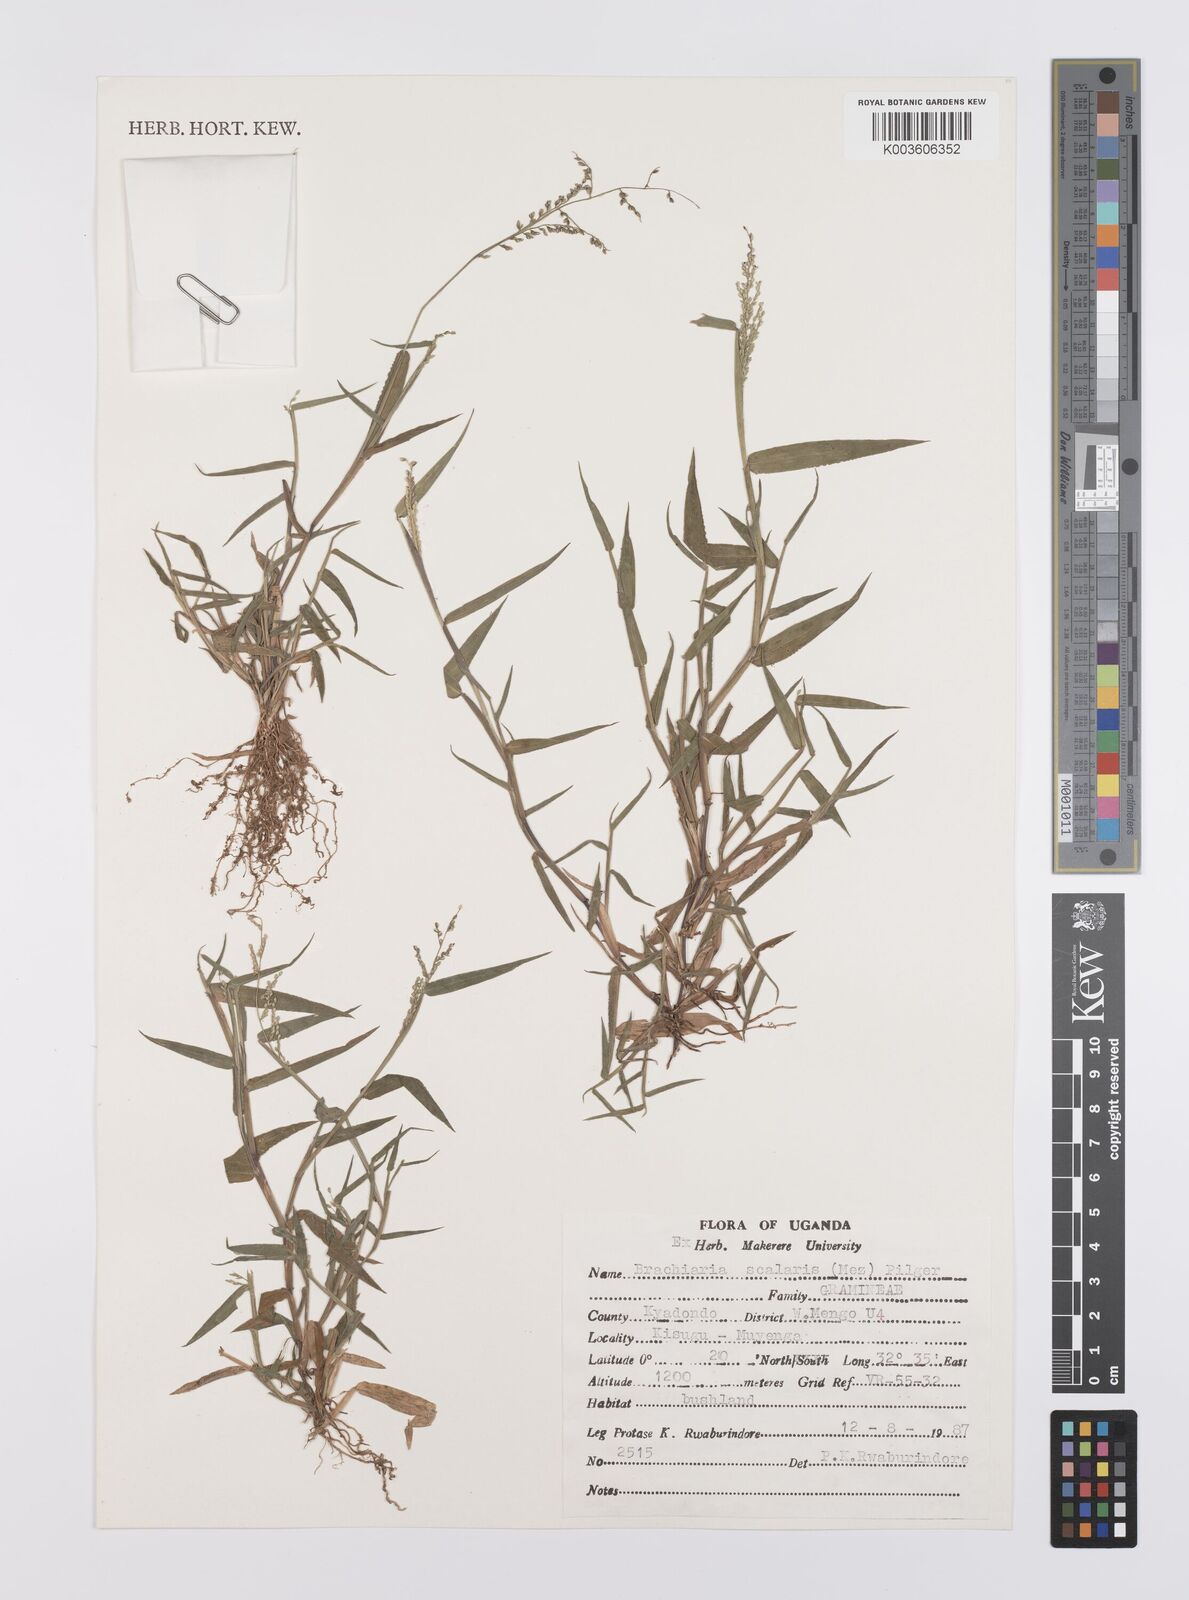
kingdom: Plantae
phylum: Tracheophyta
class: Liliopsida
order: Poales
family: Poaceae
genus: Urochloa
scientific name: Urochloa comata
